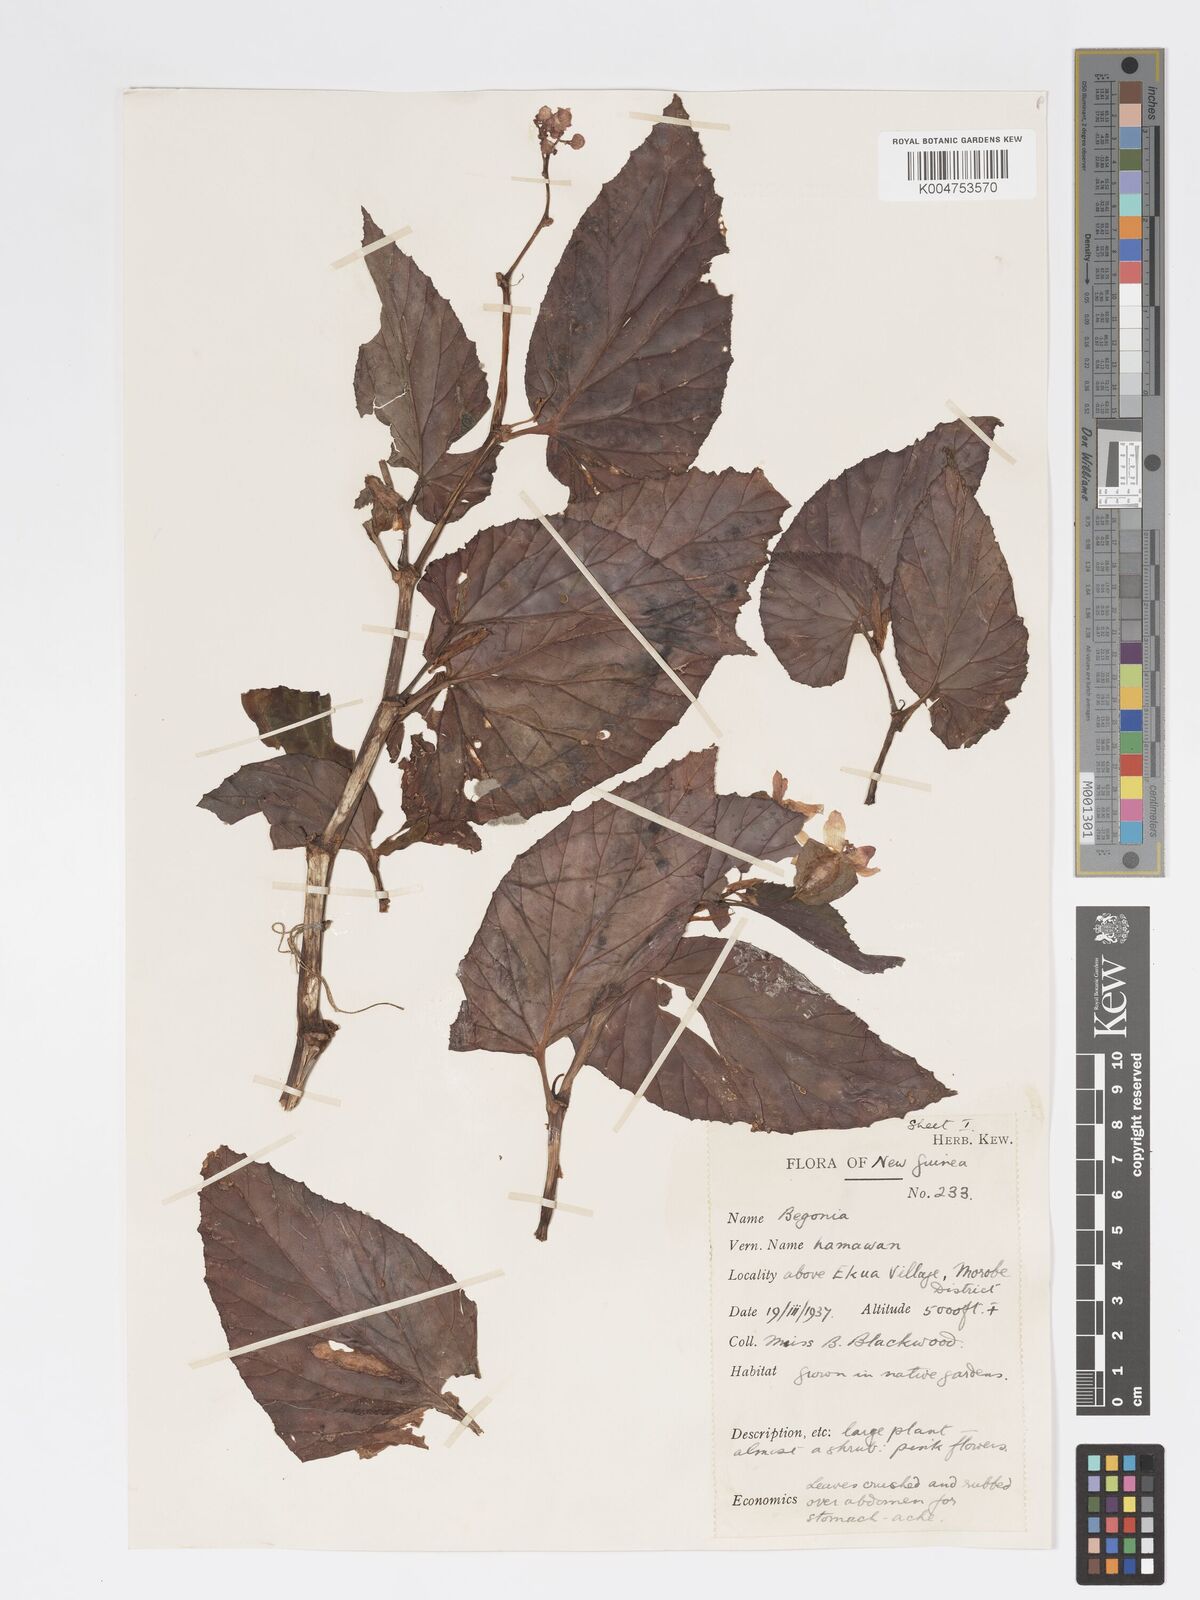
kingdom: Plantae
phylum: Tracheophyta
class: Magnoliopsida
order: Cucurbitales
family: Begoniaceae
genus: Begonia
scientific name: Begonia augustae
